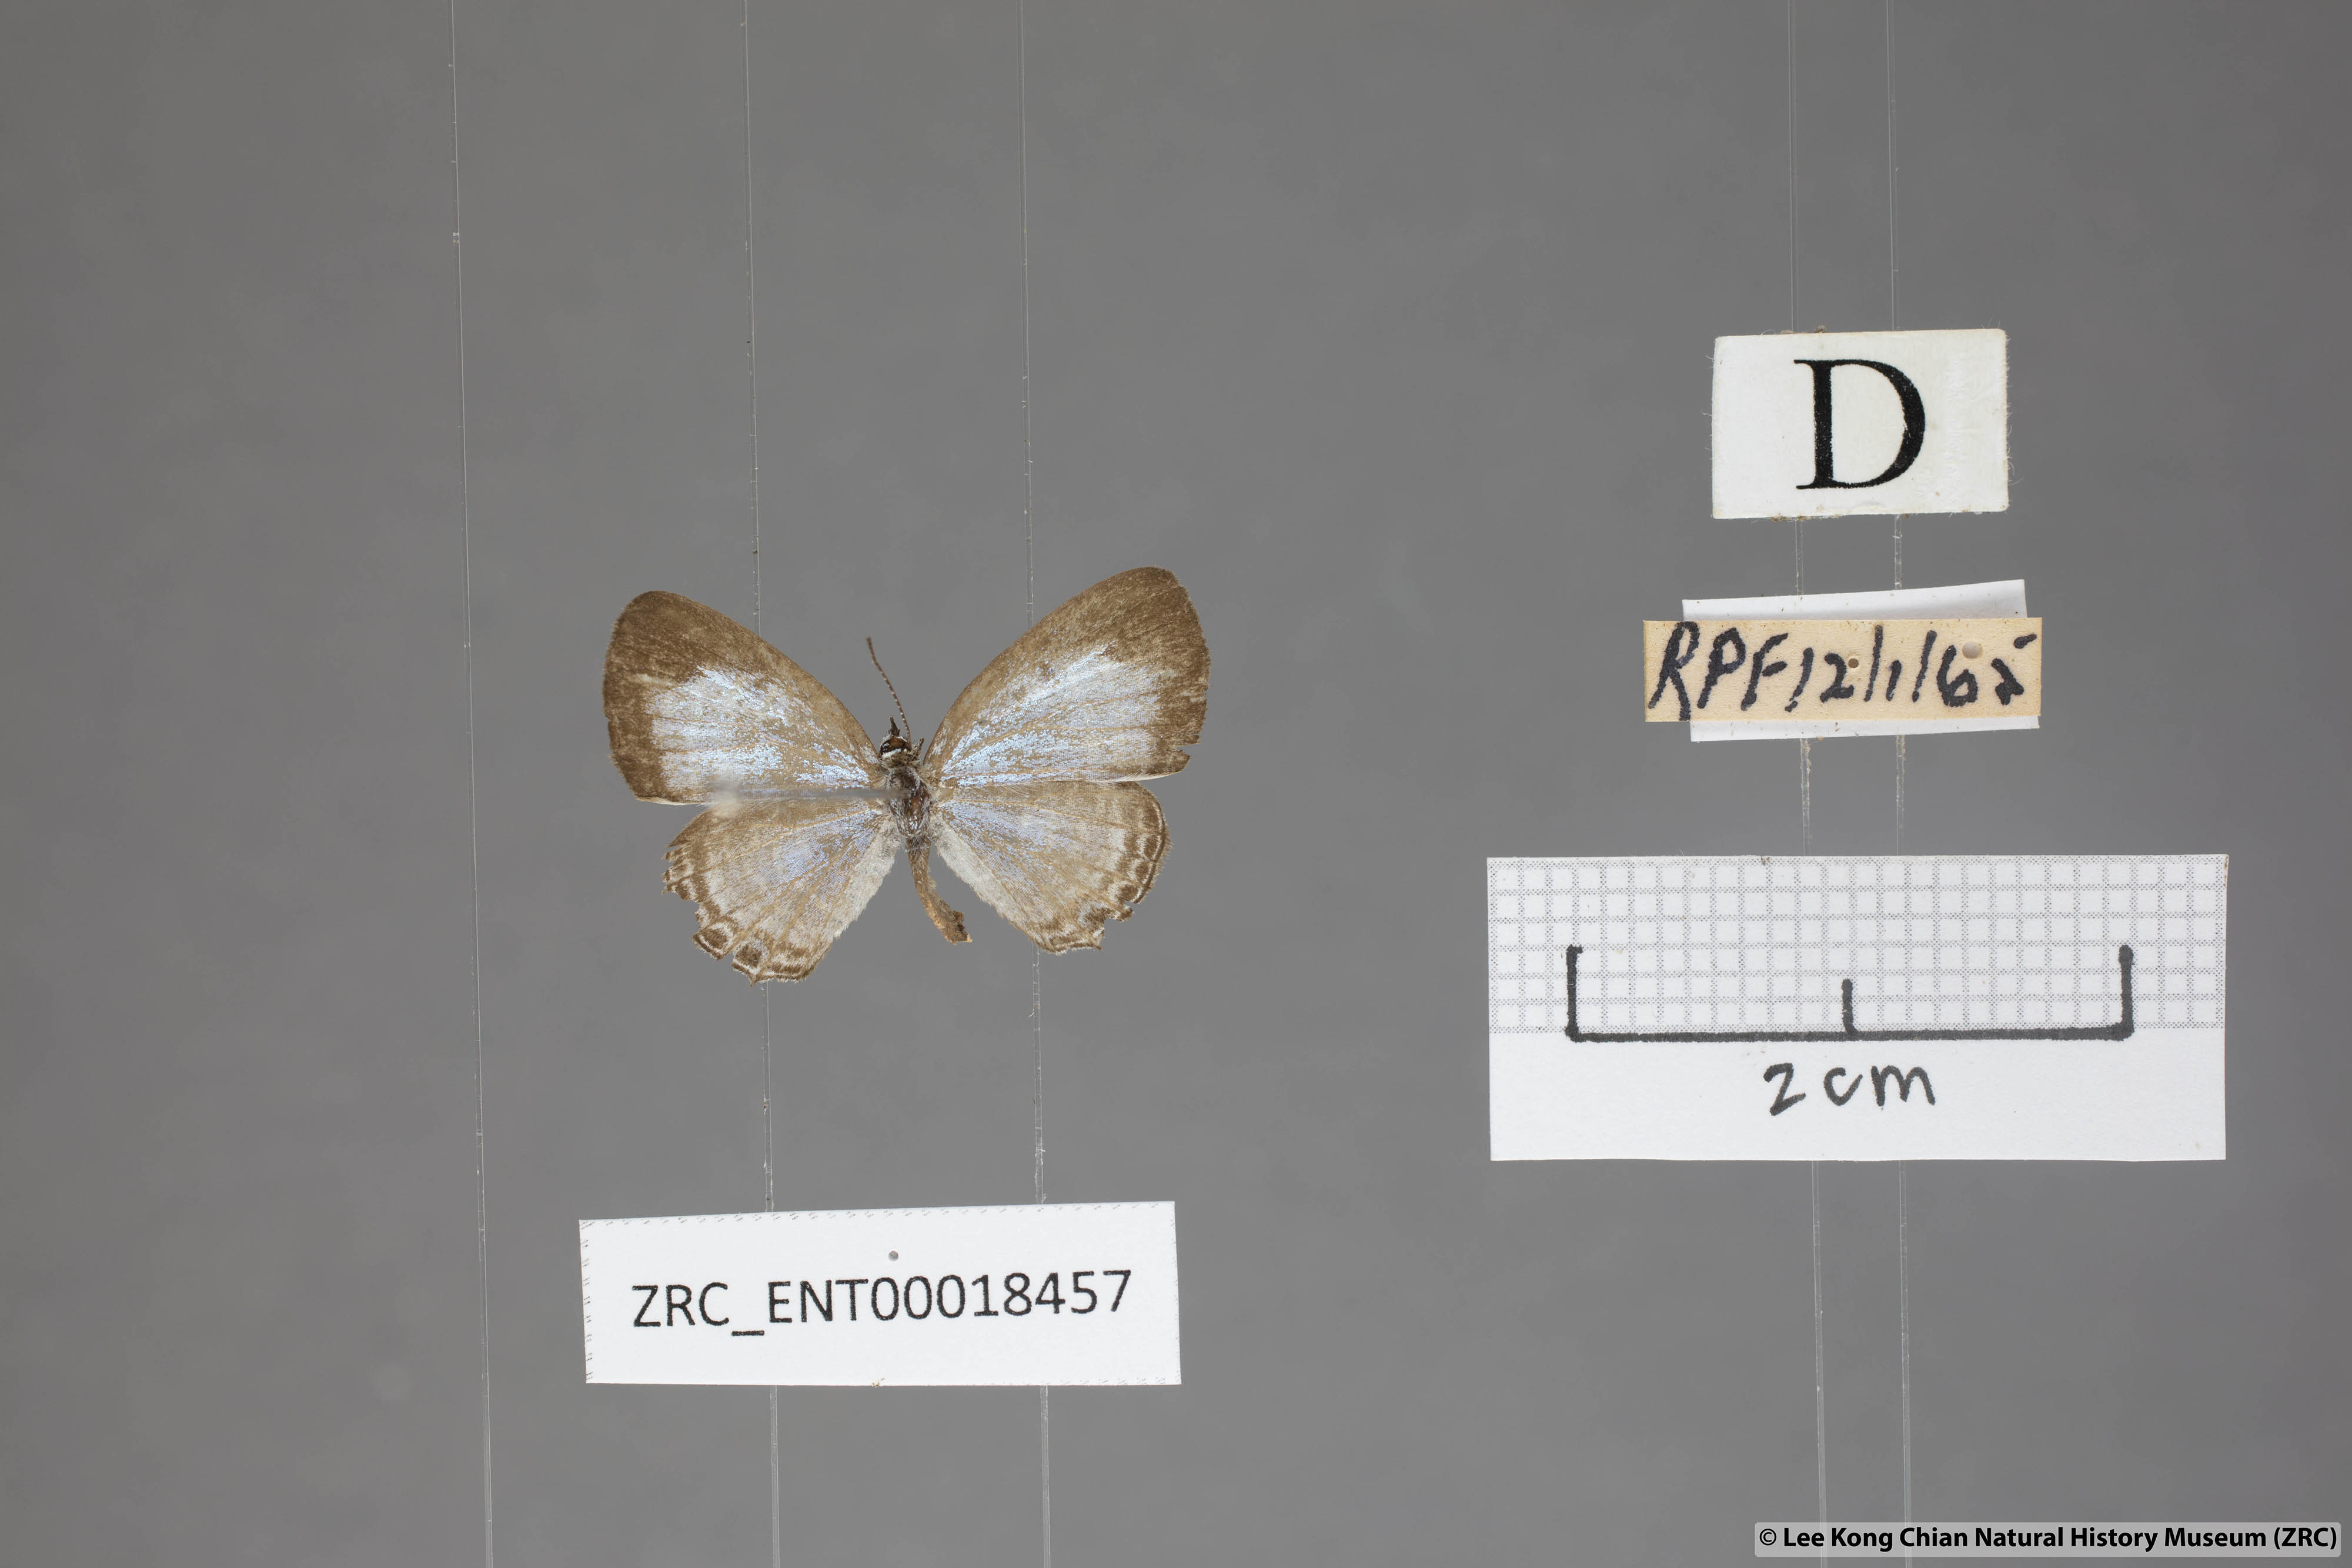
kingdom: Animalia
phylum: Arthropoda
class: Insecta
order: Lepidoptera
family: Lycaenidae
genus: Nacaduba
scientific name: Nacaduba sanaya
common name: Jewel fourline blue
